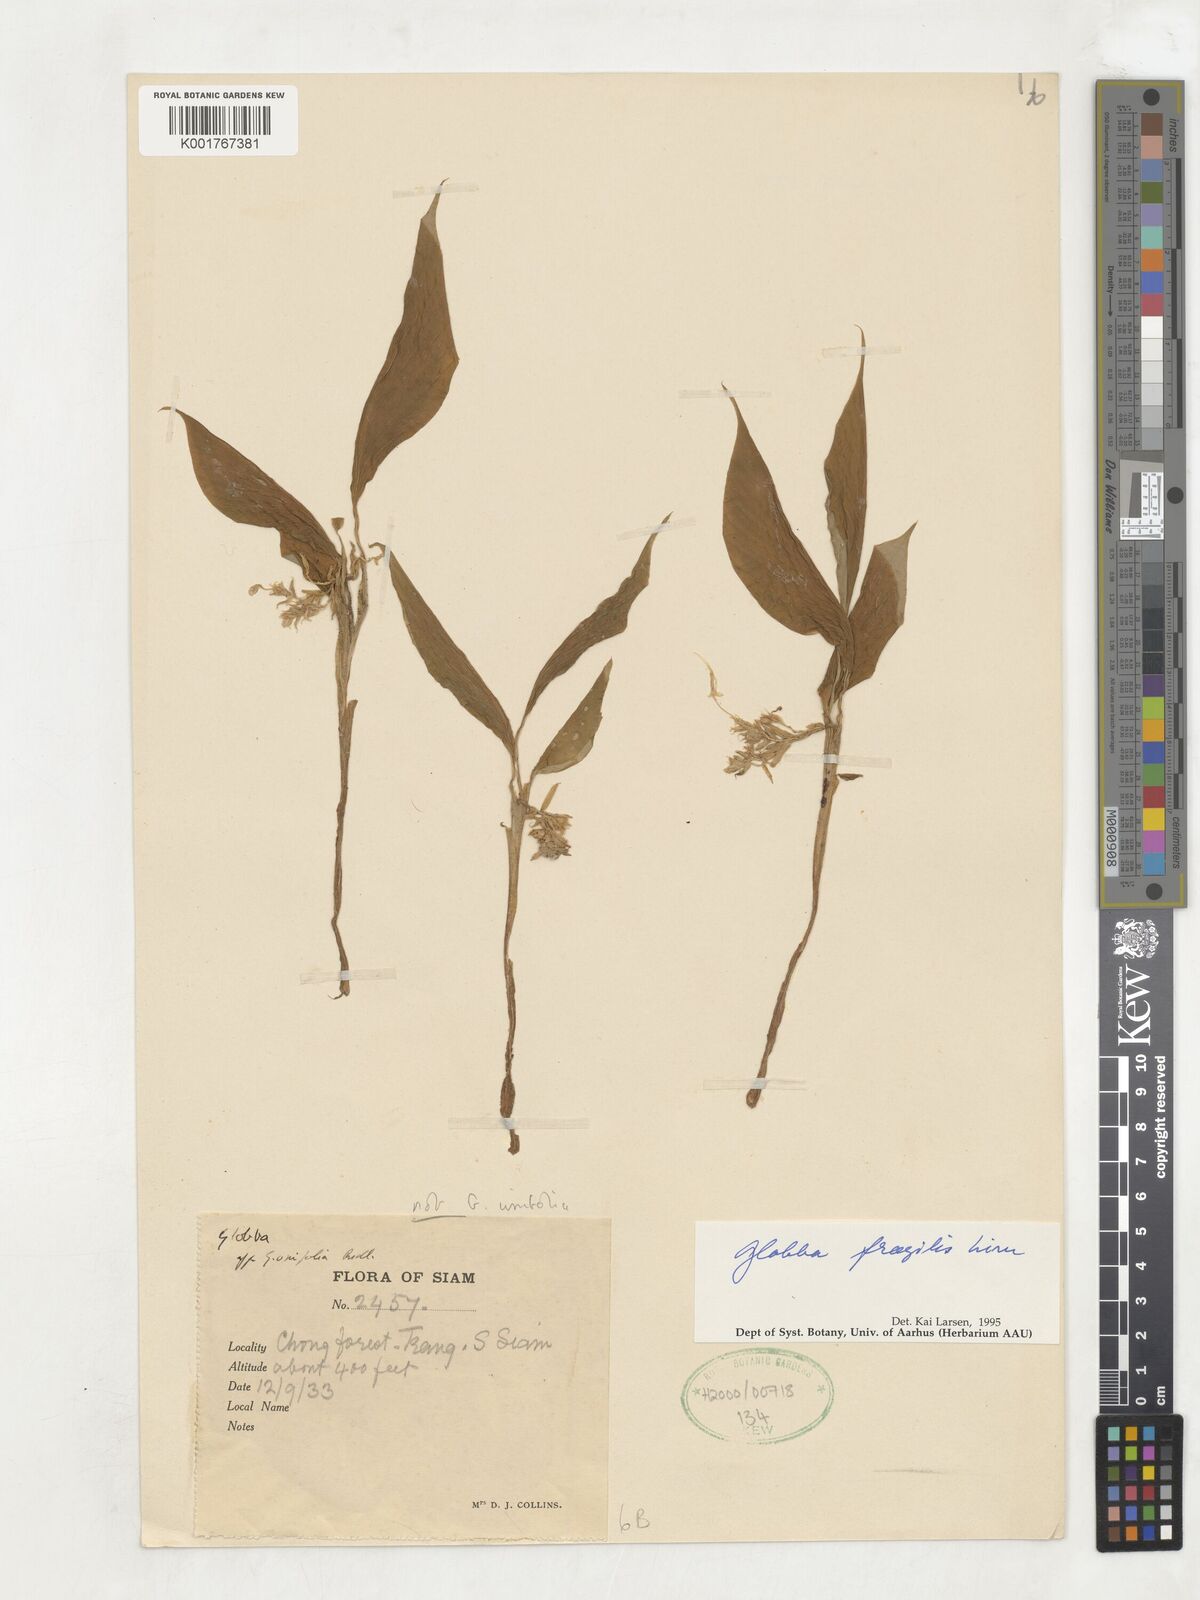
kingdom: Plantae
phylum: Tracheophyta
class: Liliopsida
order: Zingiberales
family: Zingiberaceae
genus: Globba
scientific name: Globba fragilis
